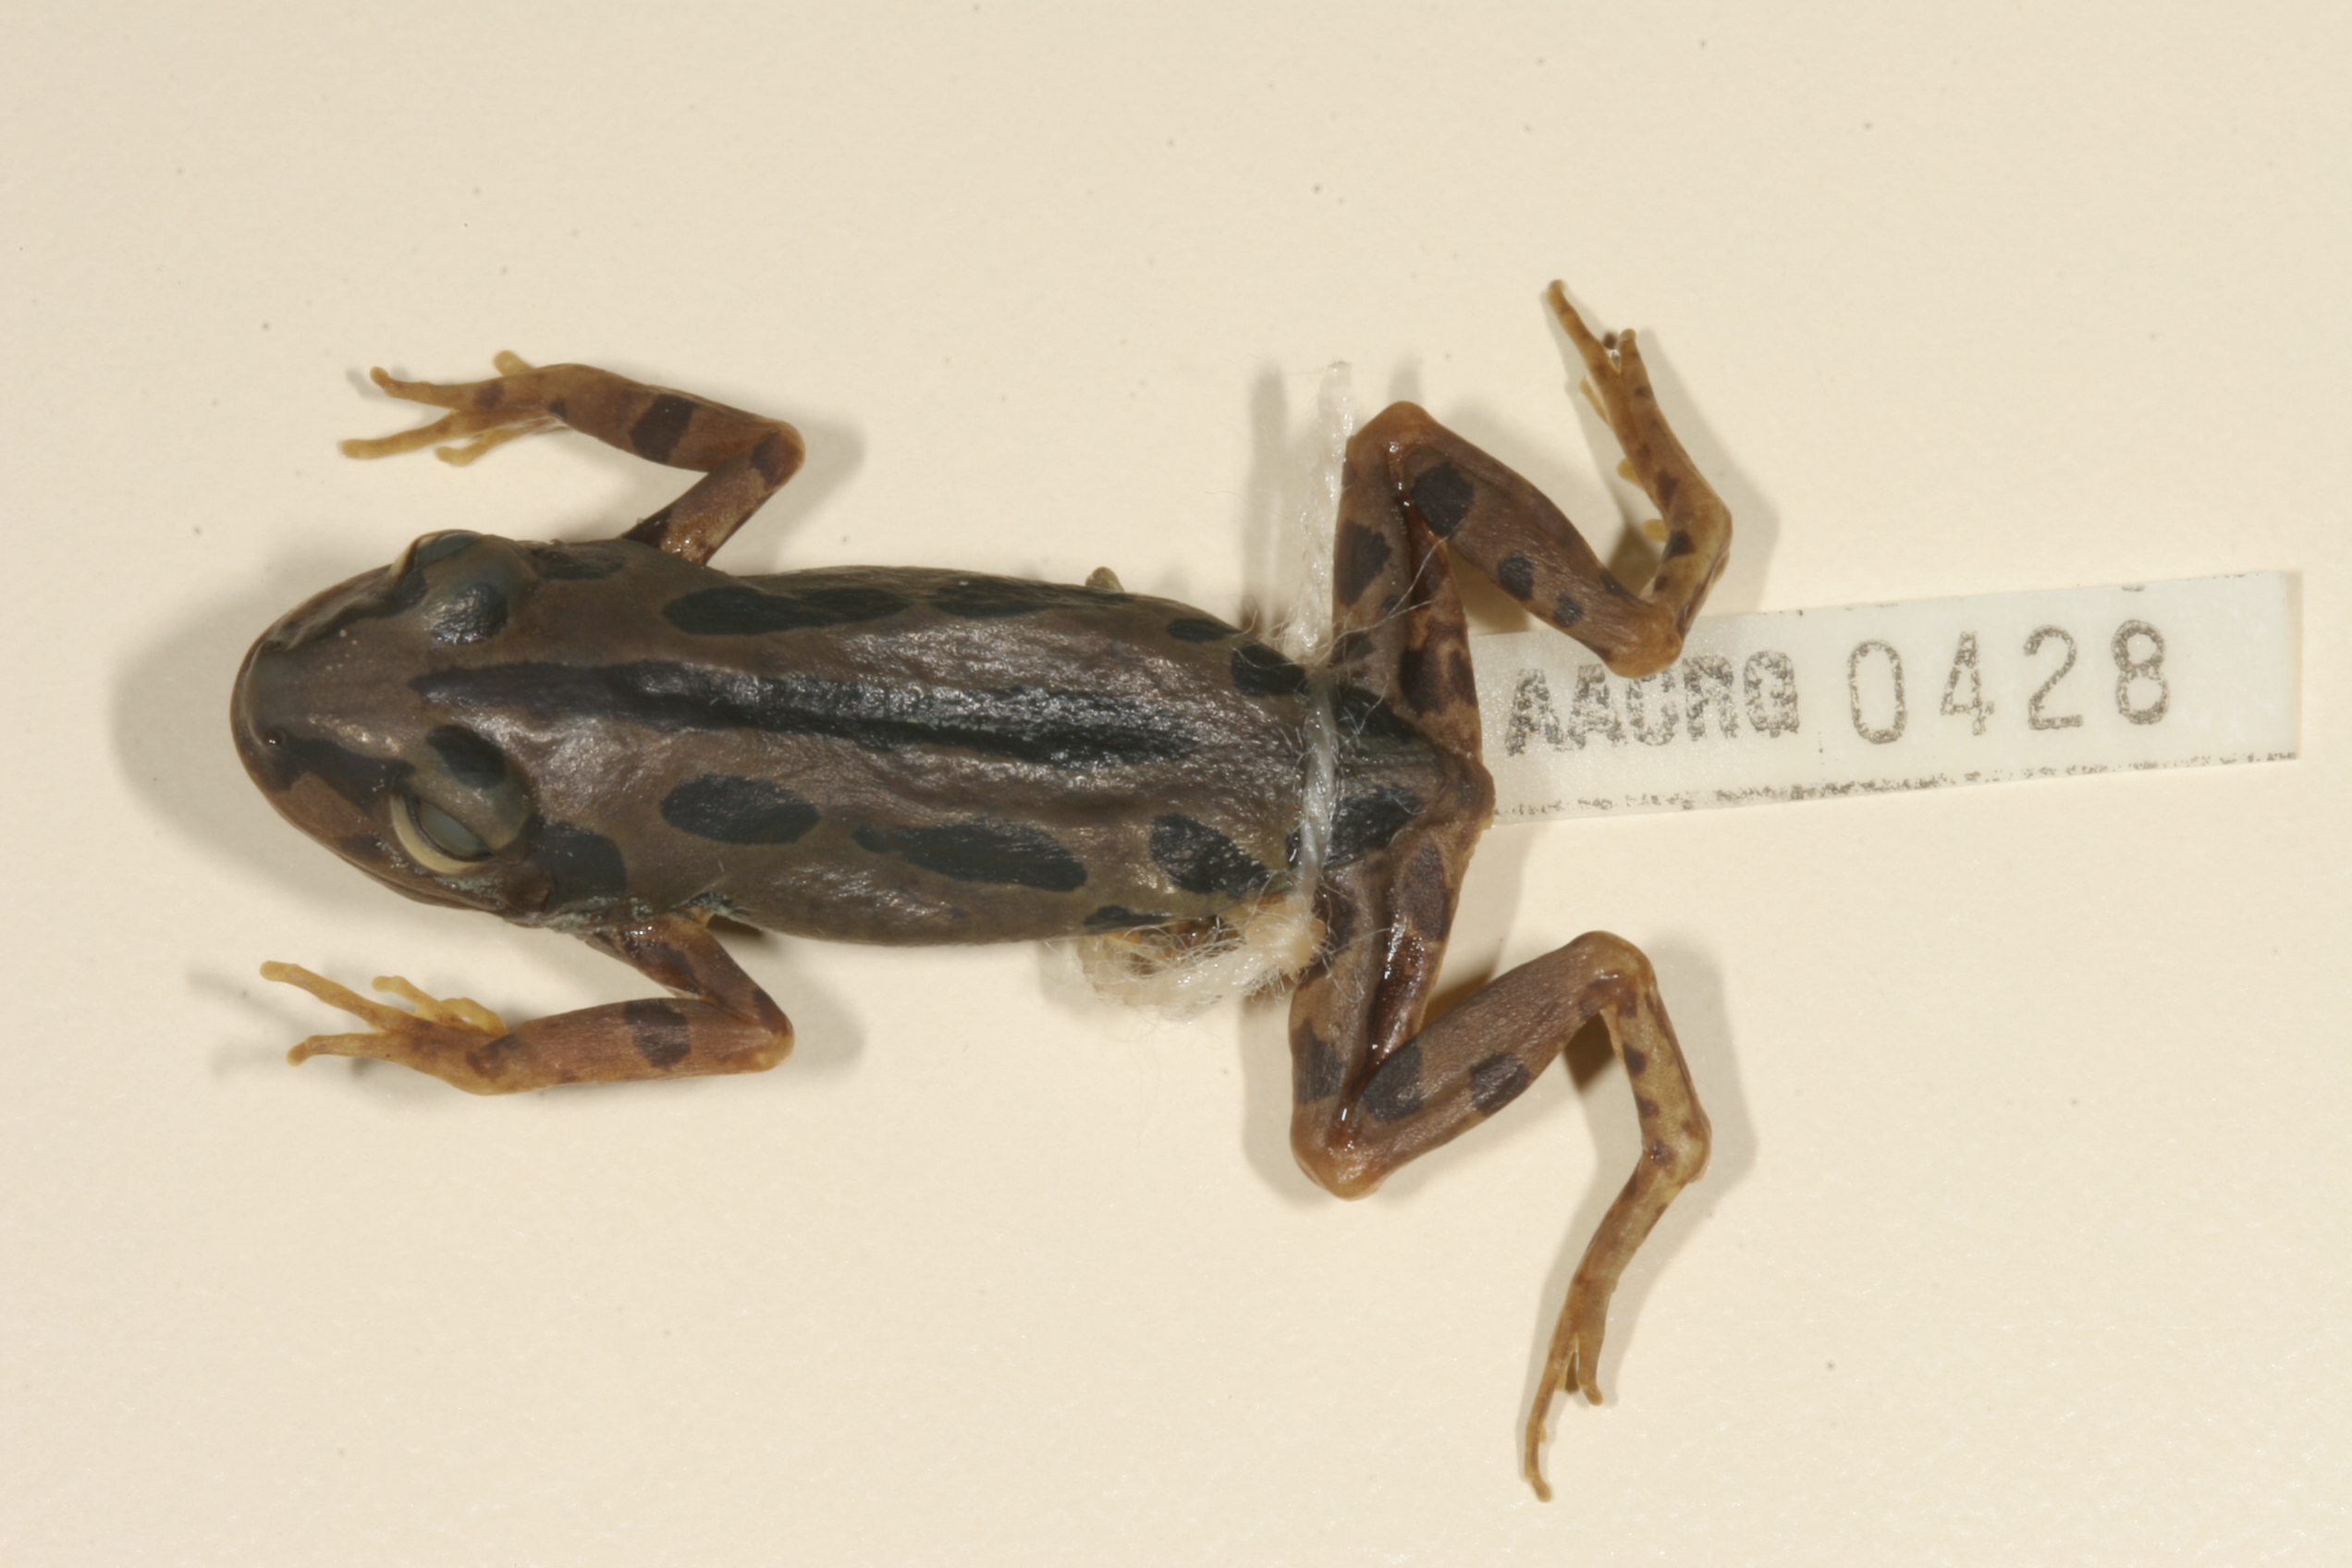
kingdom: Animalia
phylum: Chordata
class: Amphibia
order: Anura
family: Hyperoliidae
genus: Kassina
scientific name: Kassina senegalensis
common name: Senegal land frog
